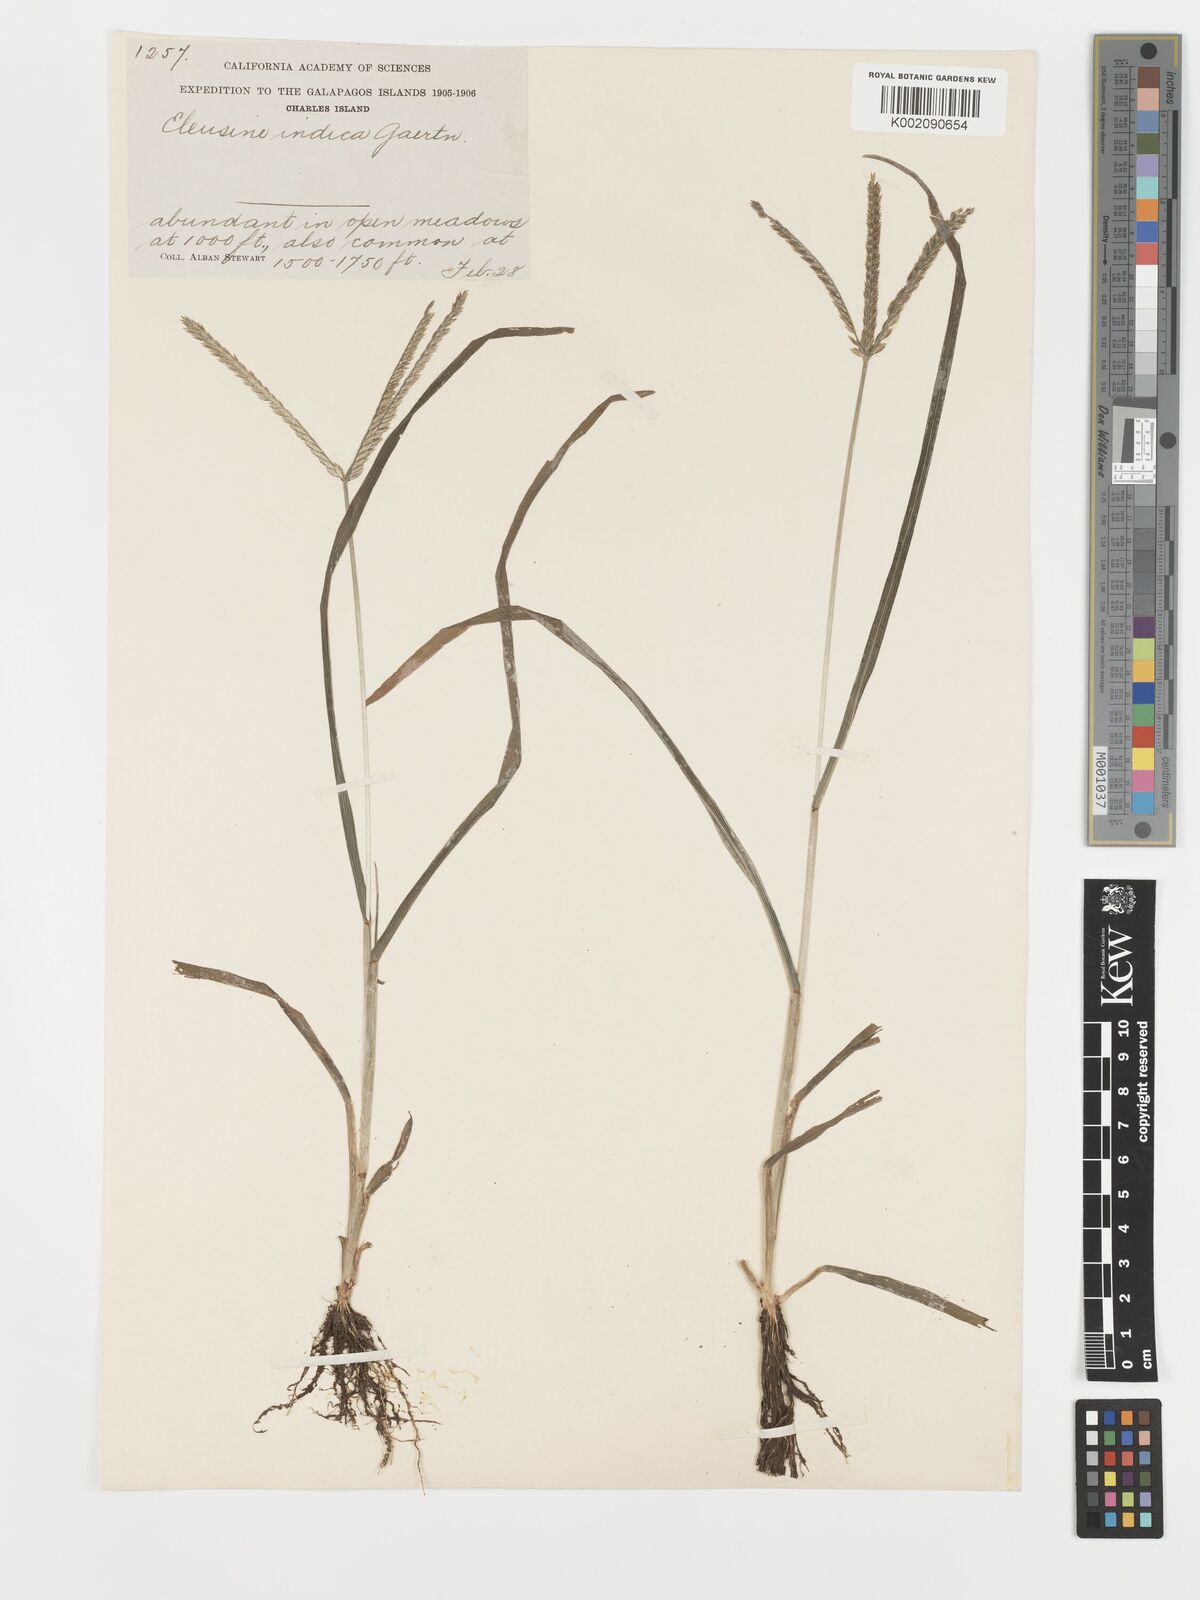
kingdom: Plantae
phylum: Tracheophyta
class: Liliopsida
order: Poales
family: Poaceae
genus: Eleusine
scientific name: Eleusine indica
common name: Yard-grass
